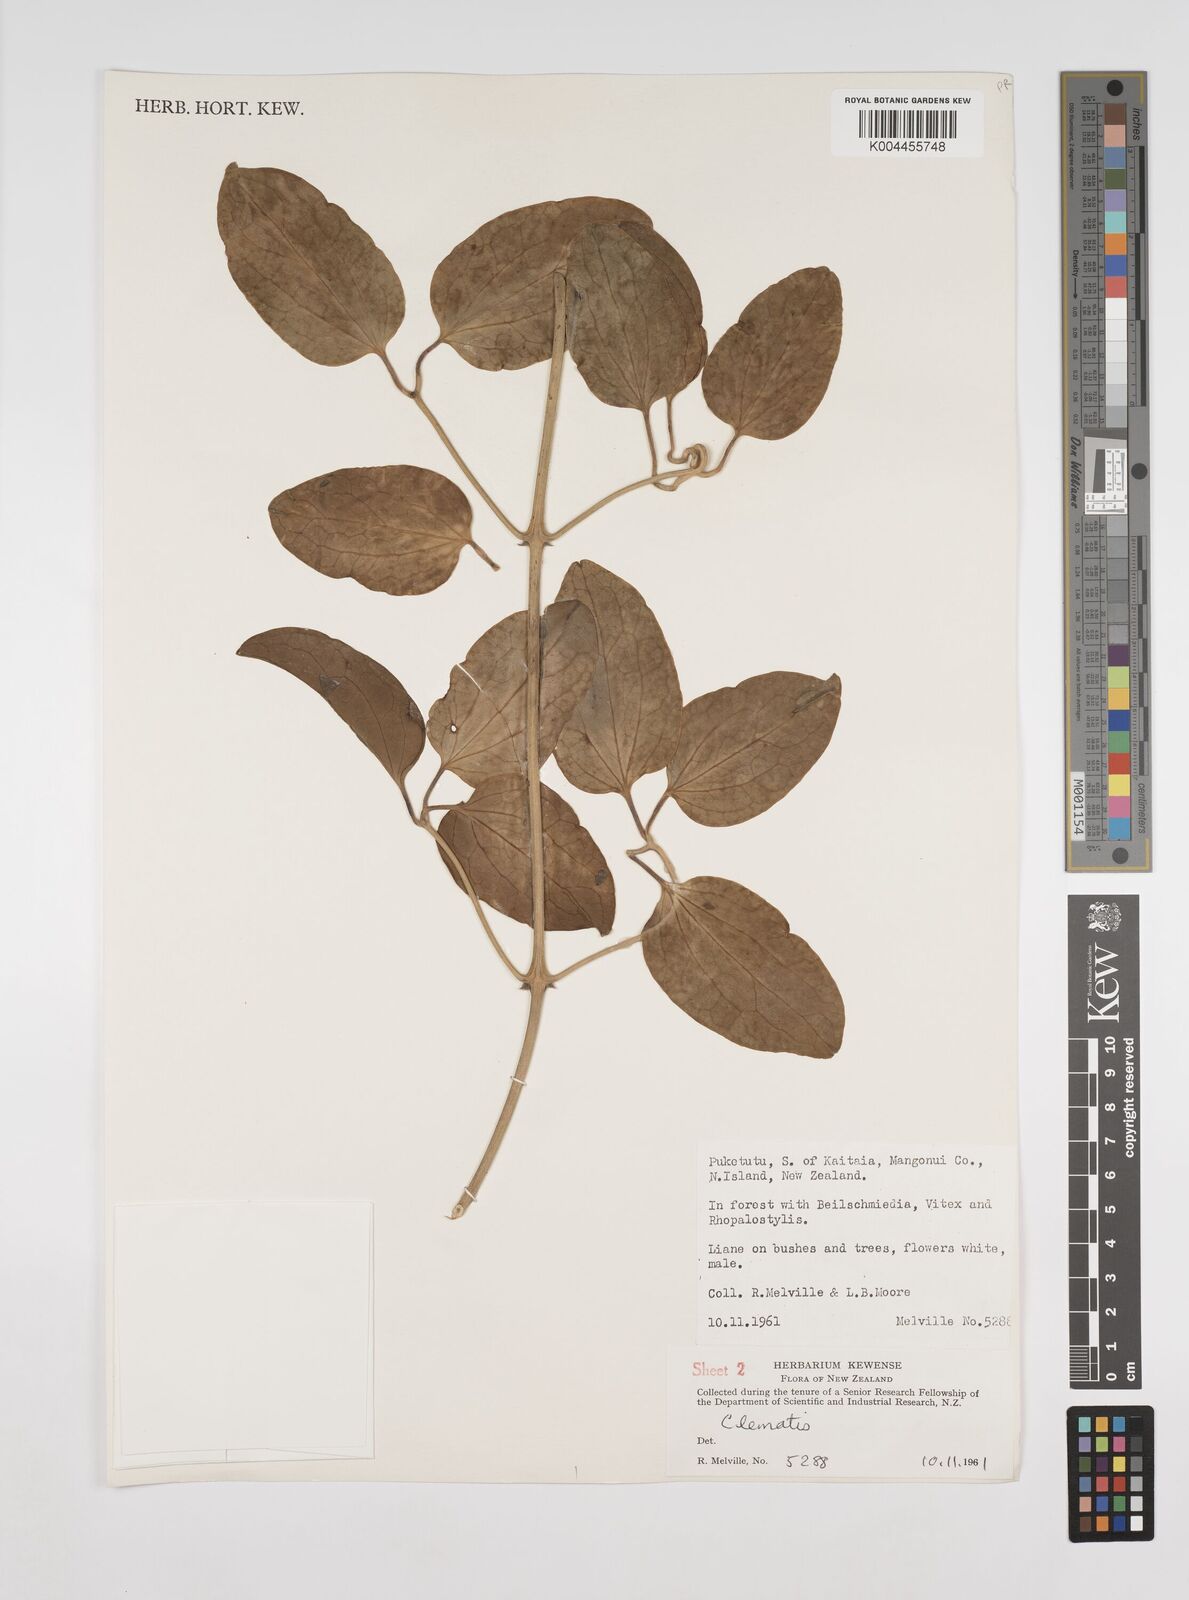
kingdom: Plantae
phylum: Tracheophyta
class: Magnoliopsida
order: Ranunculales
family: Ranunculaceae
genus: Clematis
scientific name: Clematis
